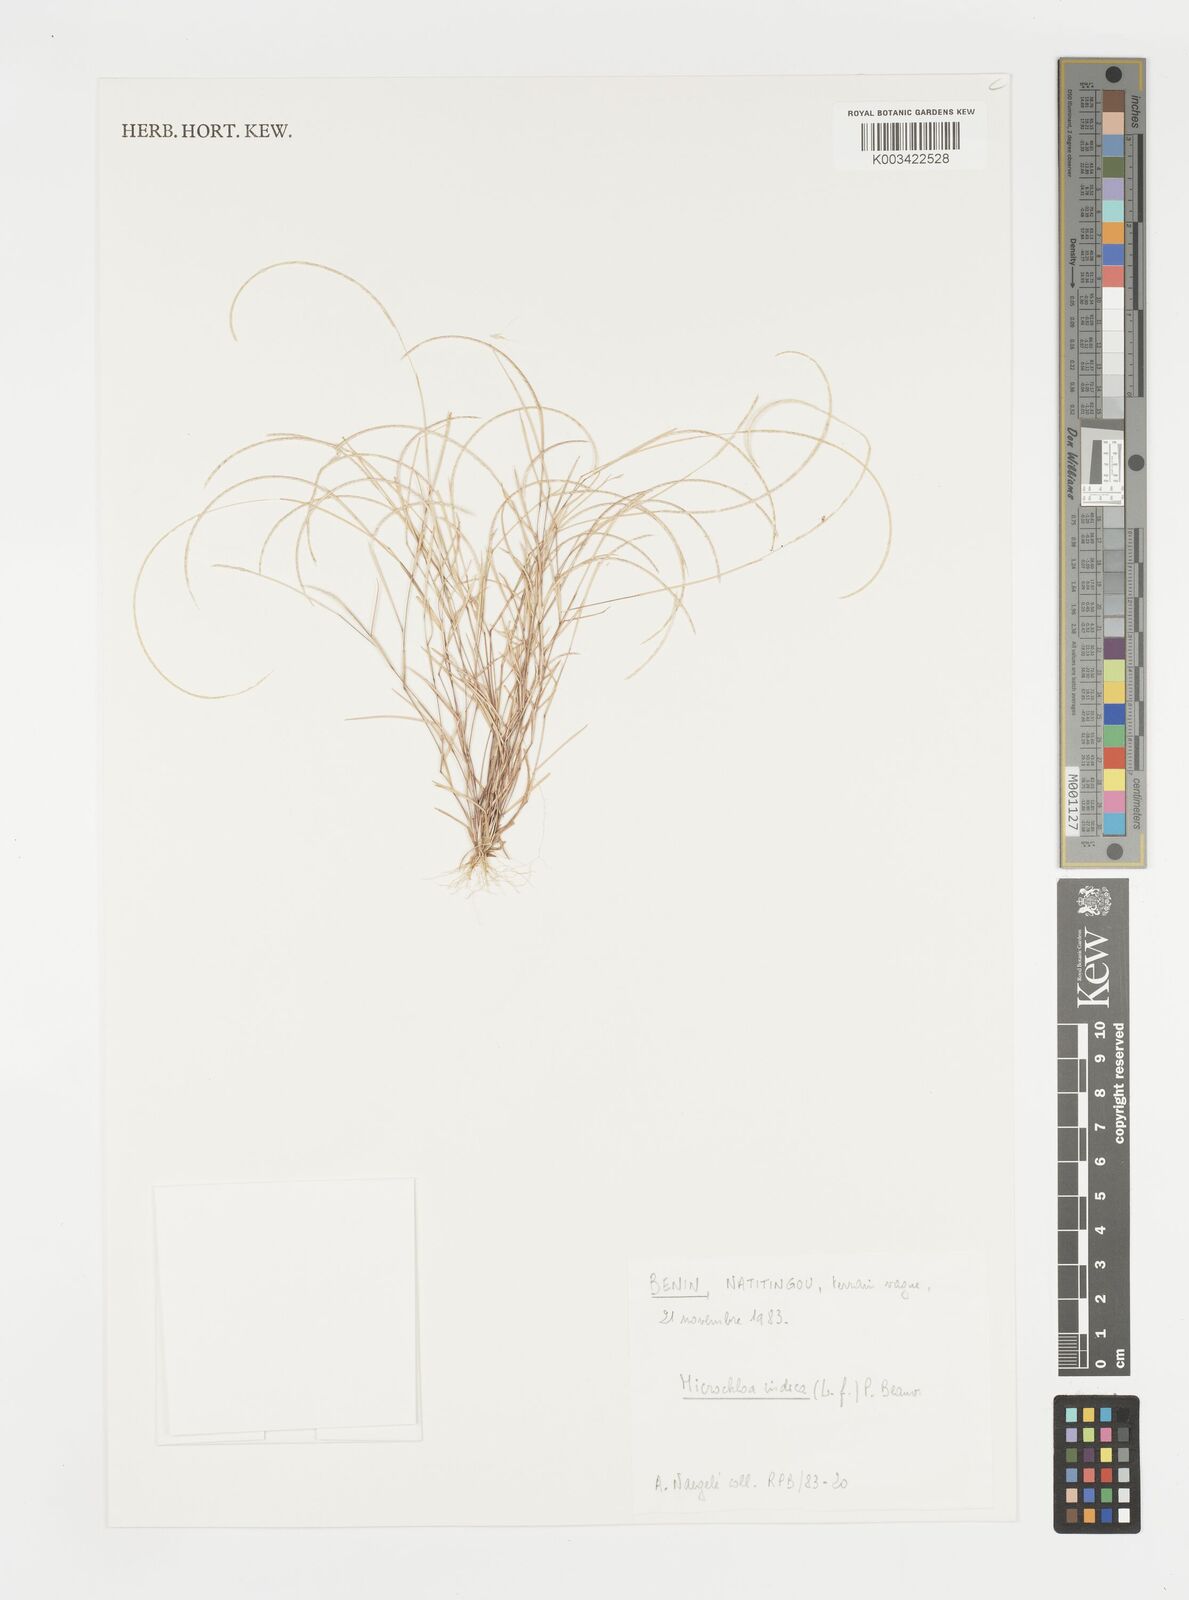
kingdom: Plantae
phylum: Tracheophyta
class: Liliopsida
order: Poales
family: Poaceae
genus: Microchloa
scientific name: Microchloa indica
